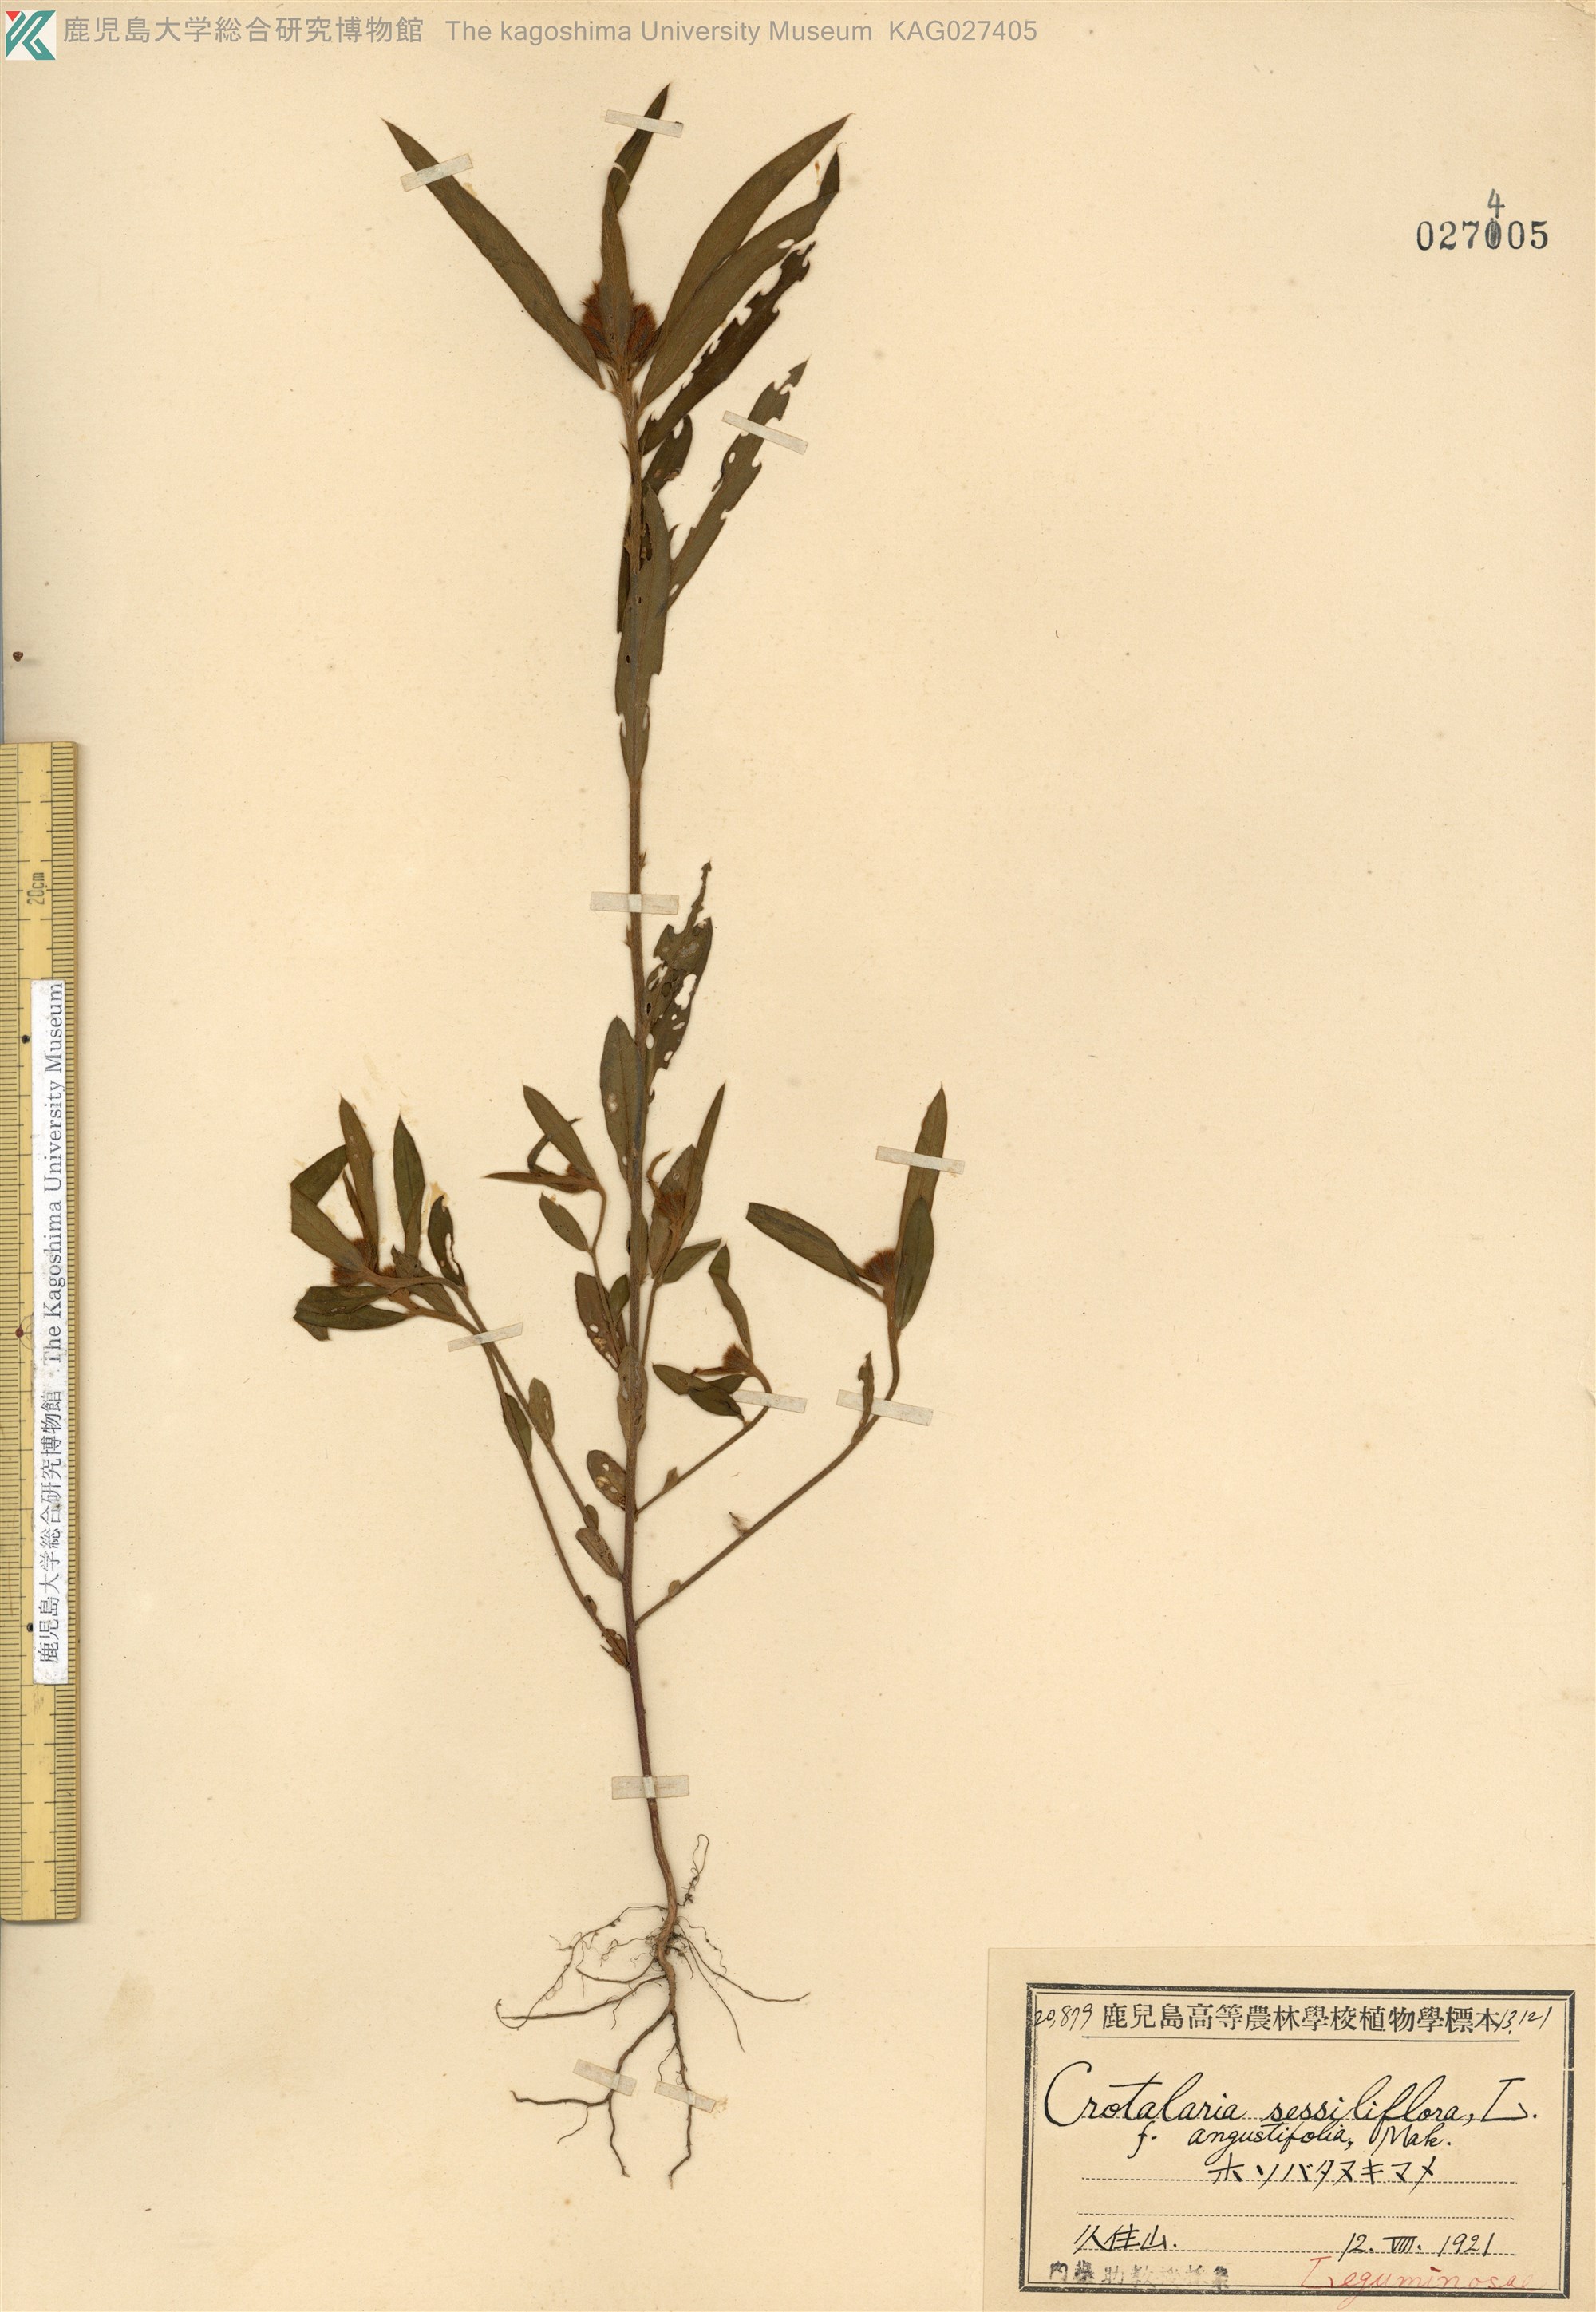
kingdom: Plantae
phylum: Tracheophyta
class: Magnoliopsida
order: Fabales
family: Fabaceae
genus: Crotalaria
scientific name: Crotalaria sessiliflora
